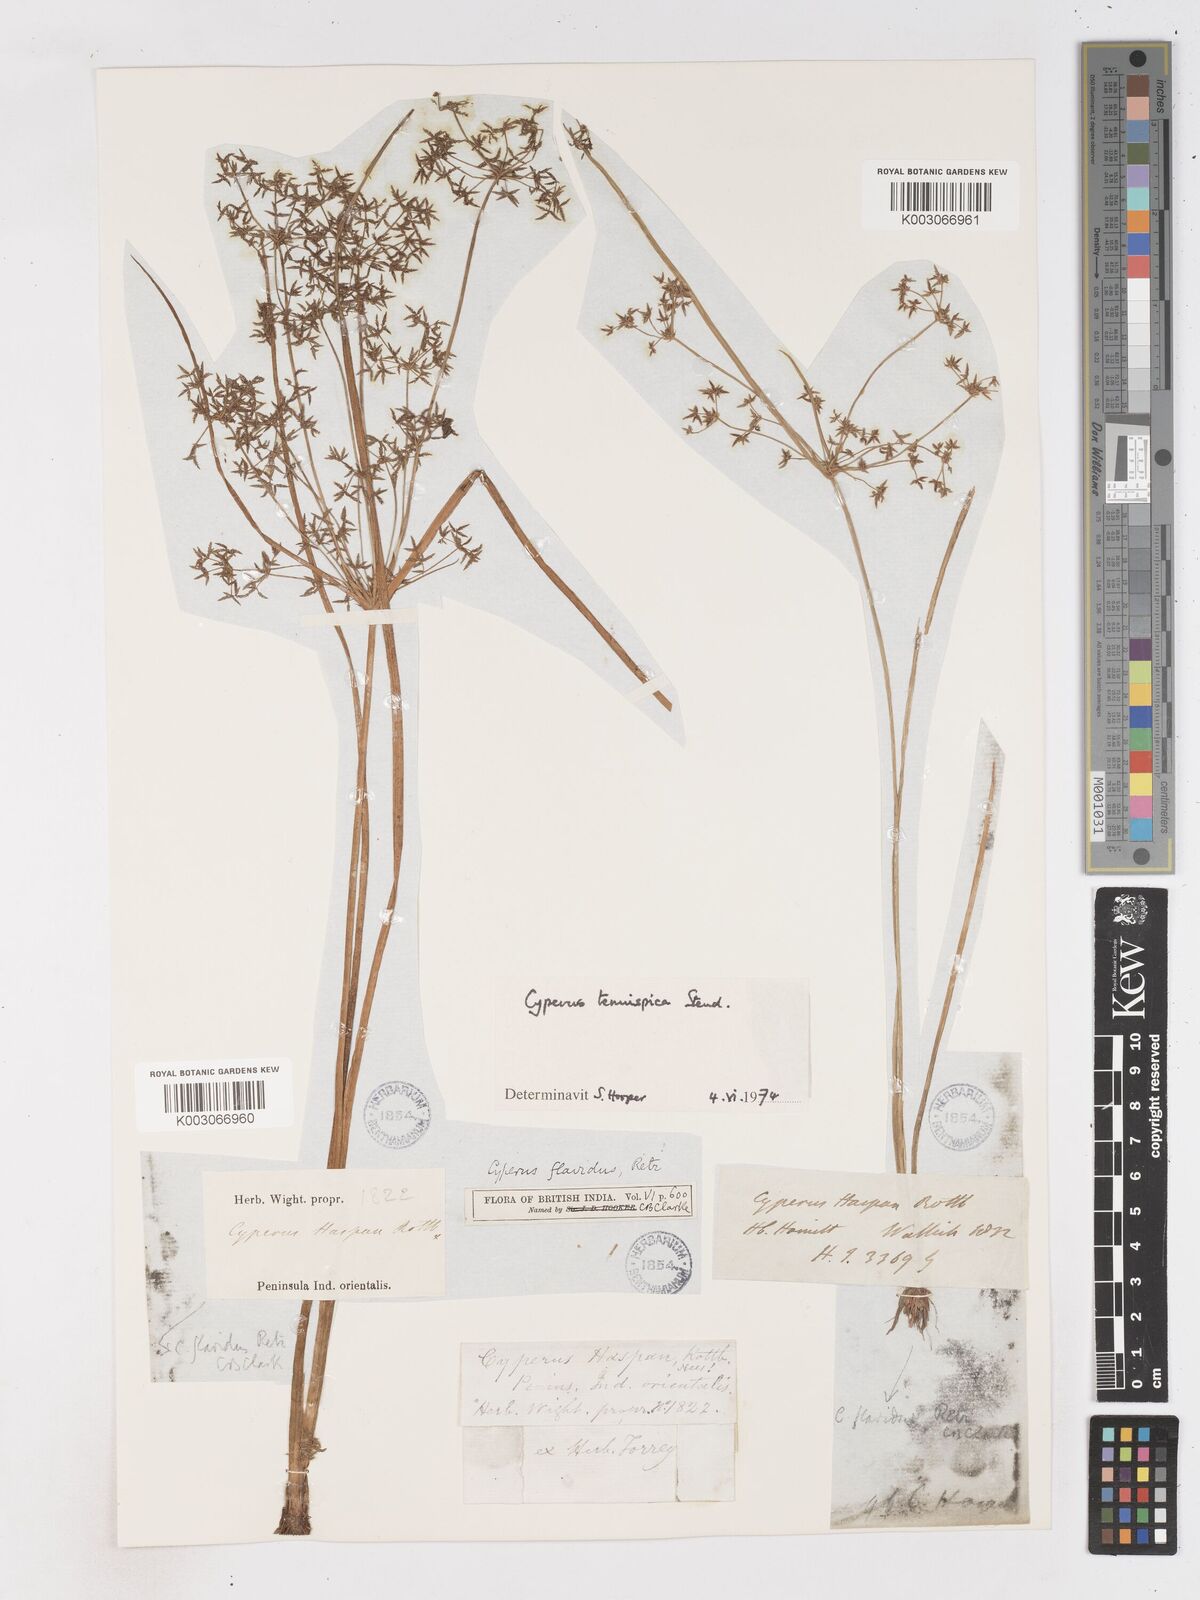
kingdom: Plantae
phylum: Tracheophyta
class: Liliopsida
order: Poales
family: Cyperaceae
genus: Cyperus
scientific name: Cyperus tenuispica
